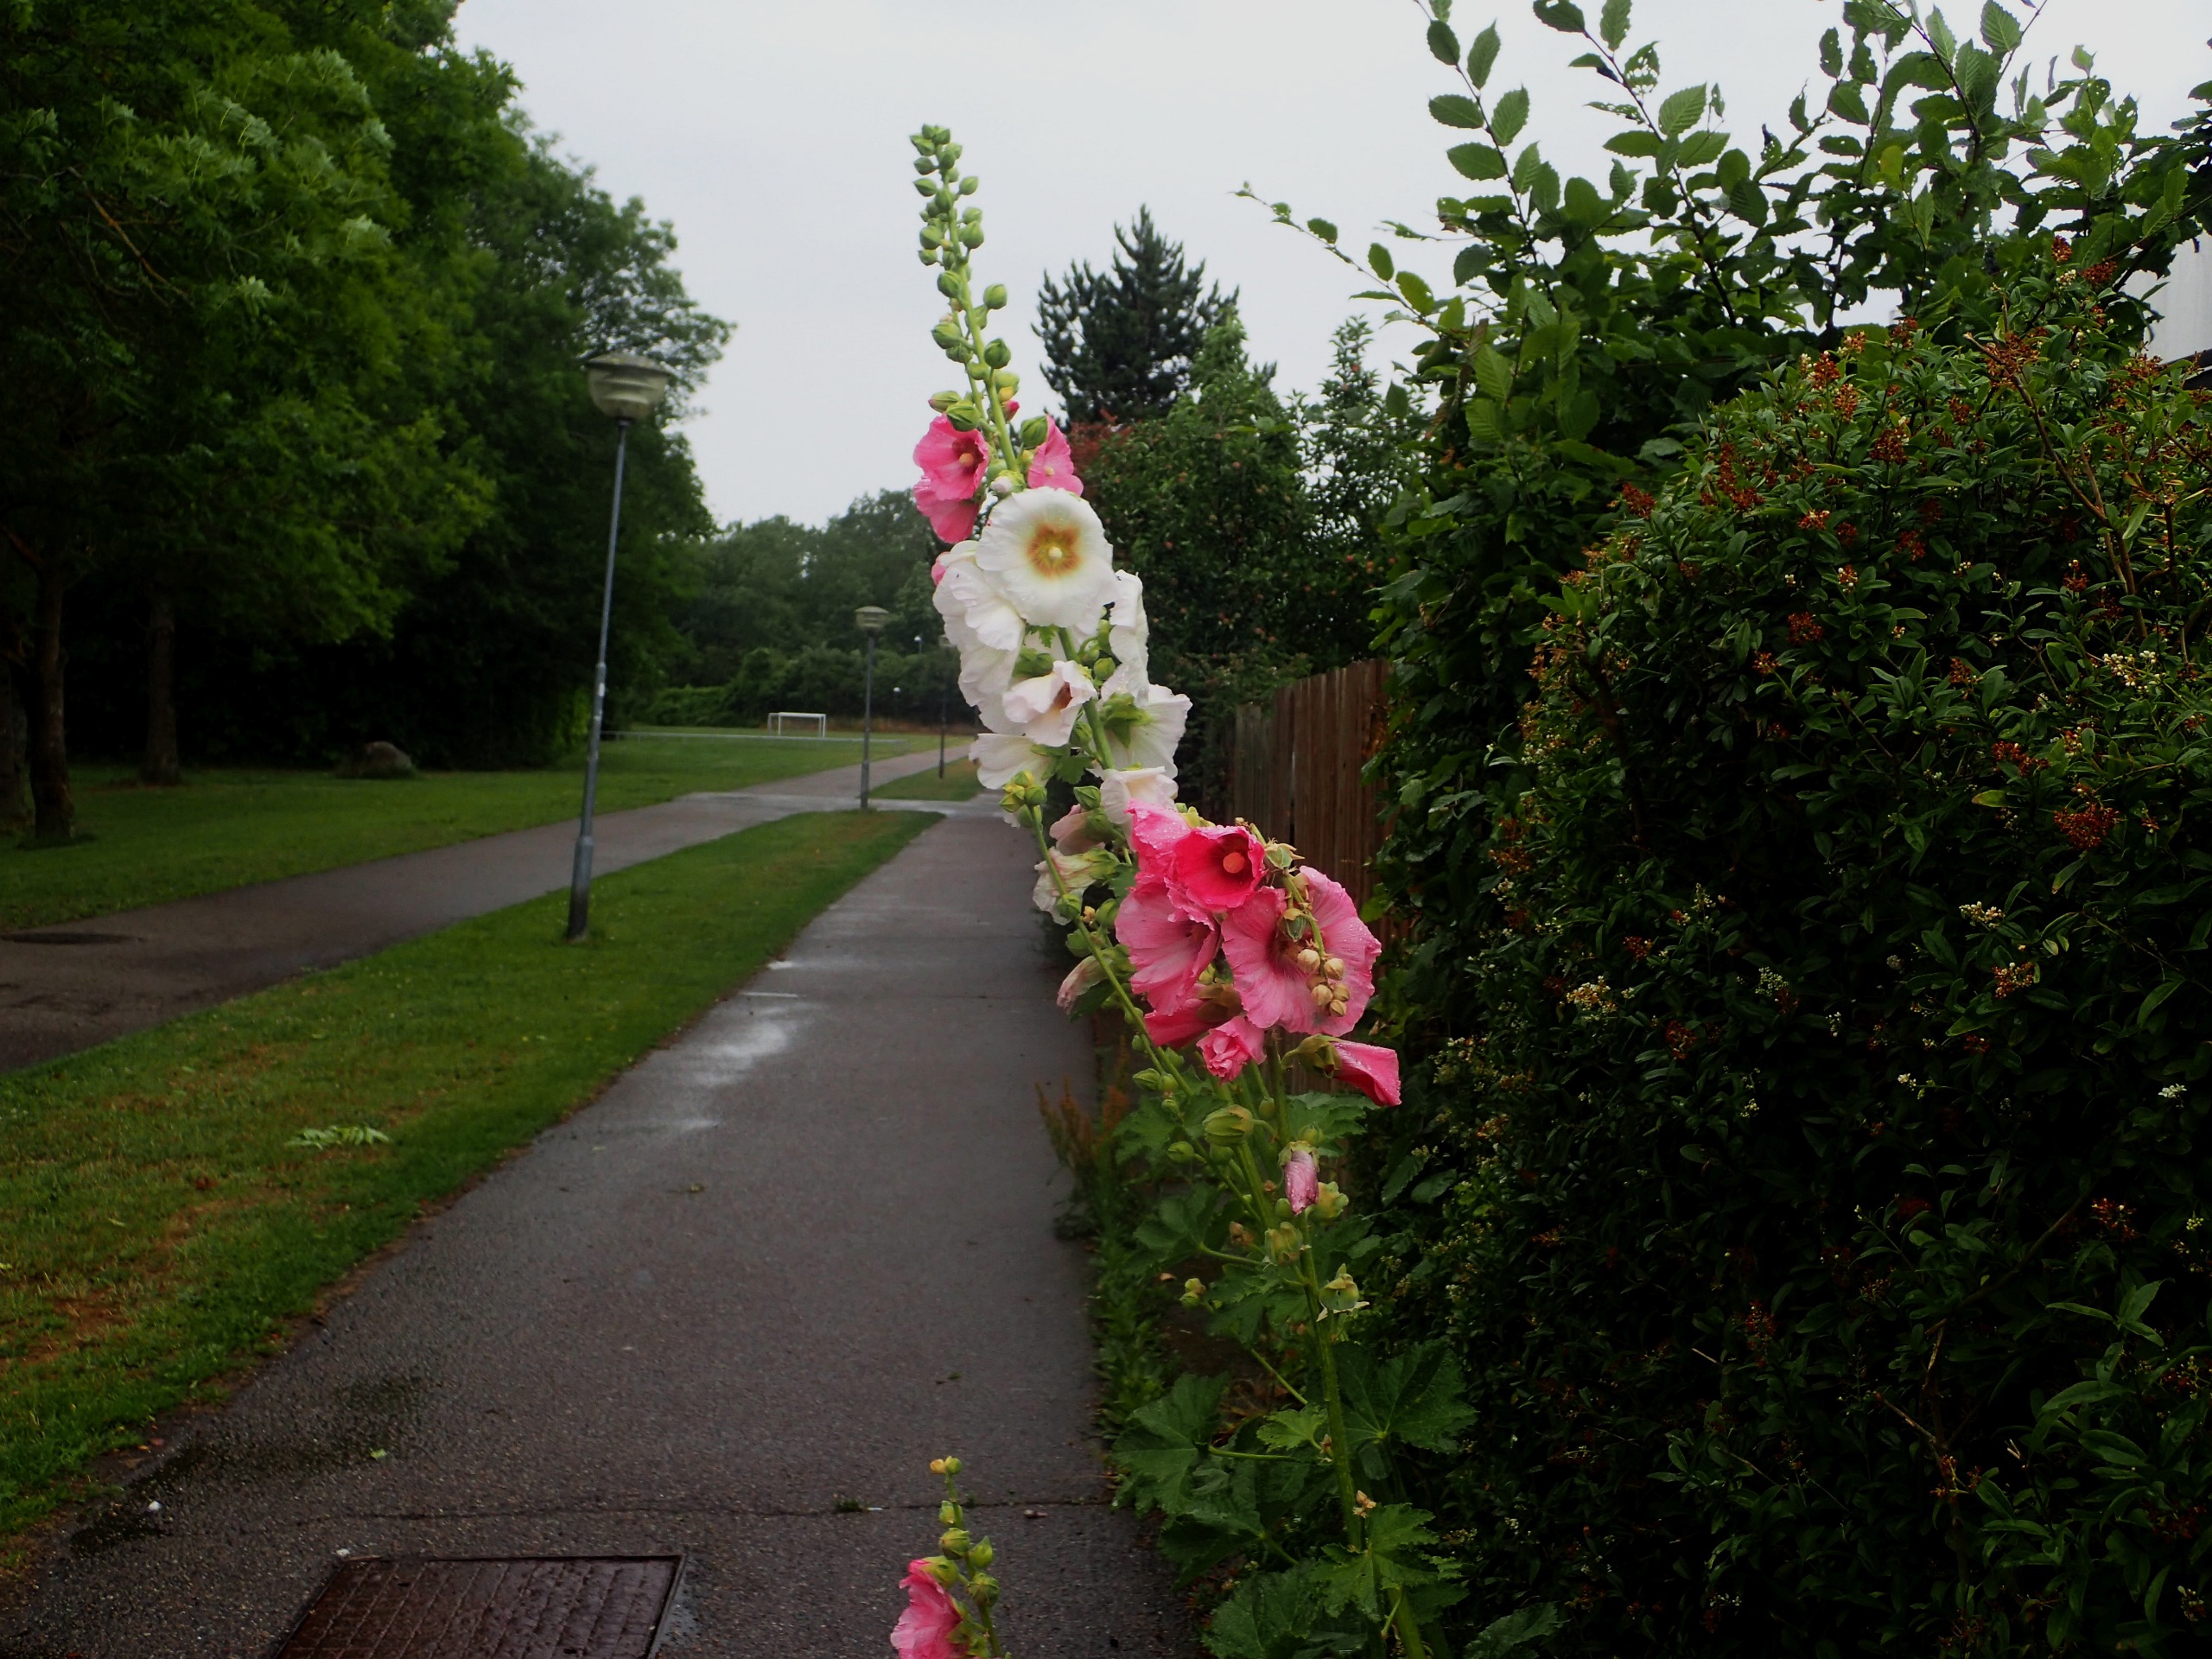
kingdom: Plantae
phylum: Tracheophyta
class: Magnoliopsida
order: Malvales
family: Malvaceae
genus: Alcea
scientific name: Alcea rosea
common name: Have-stokrose
